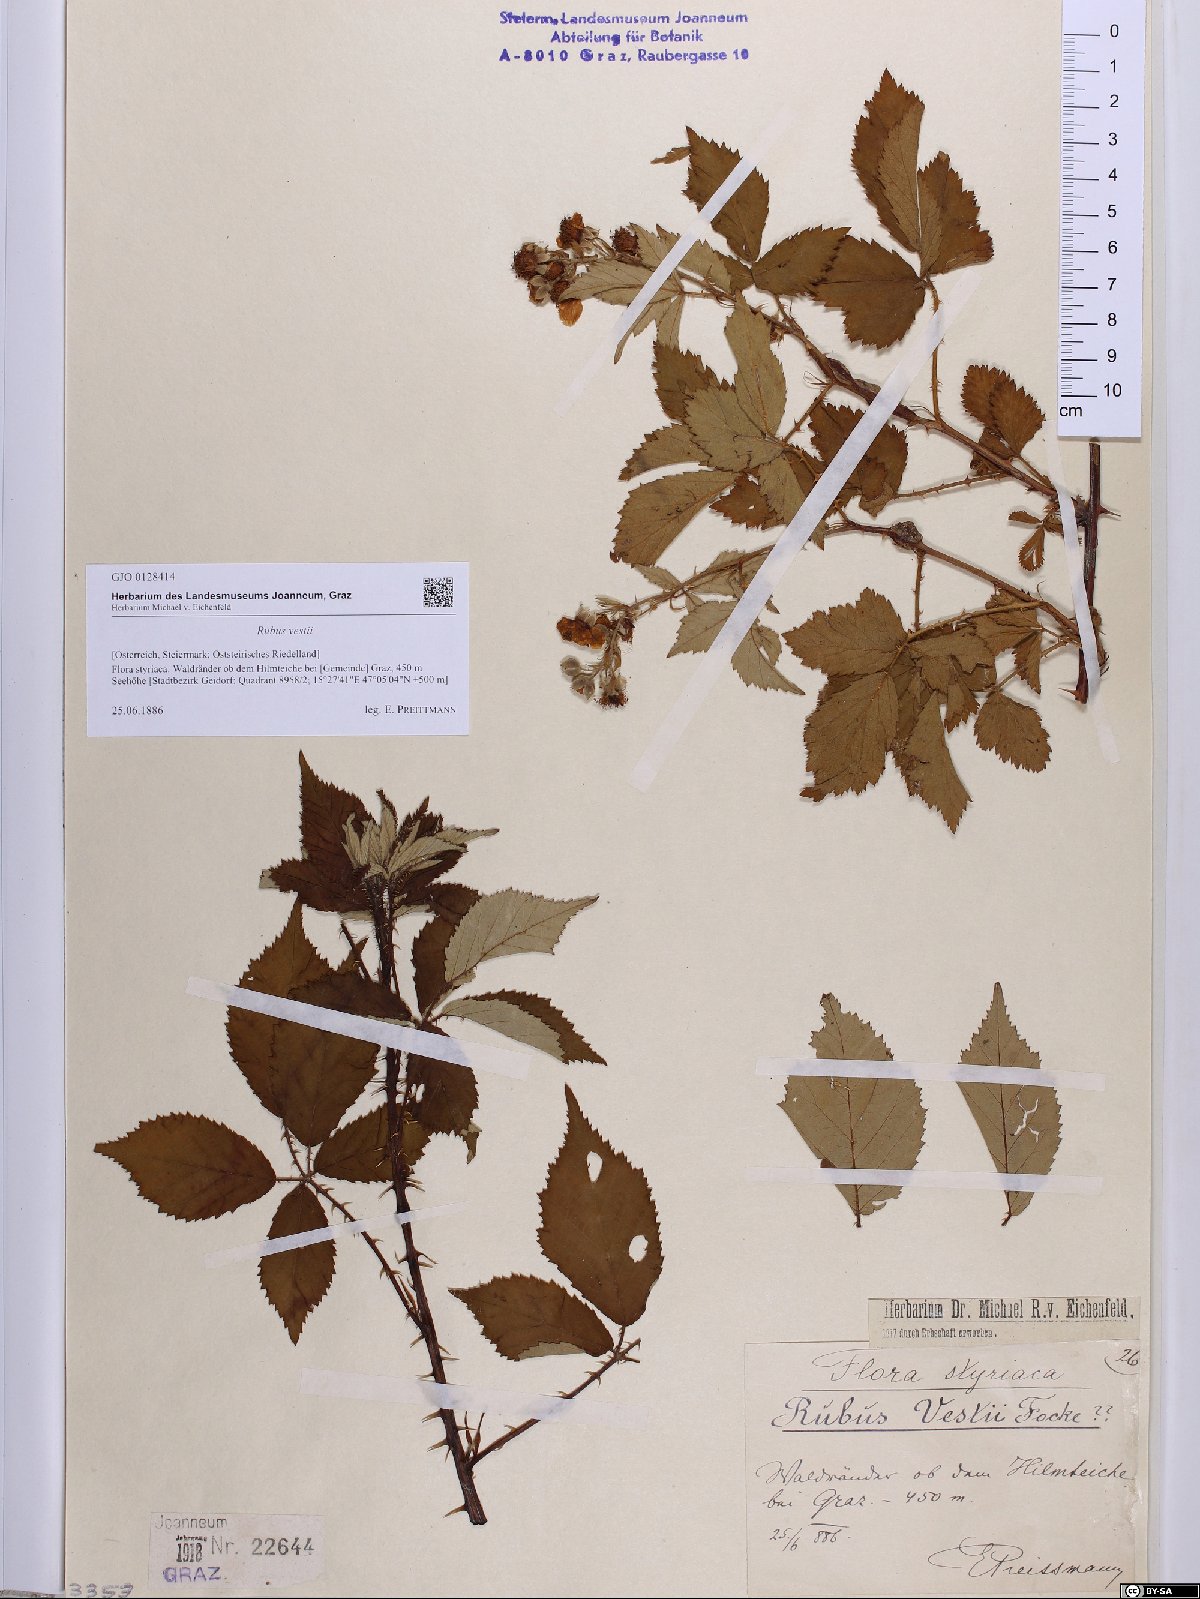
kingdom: Plantae
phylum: Tracheophyta
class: Magnoliopsida
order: Rosales
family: Rosaceae
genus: Rubus
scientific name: Rubus constrictus
